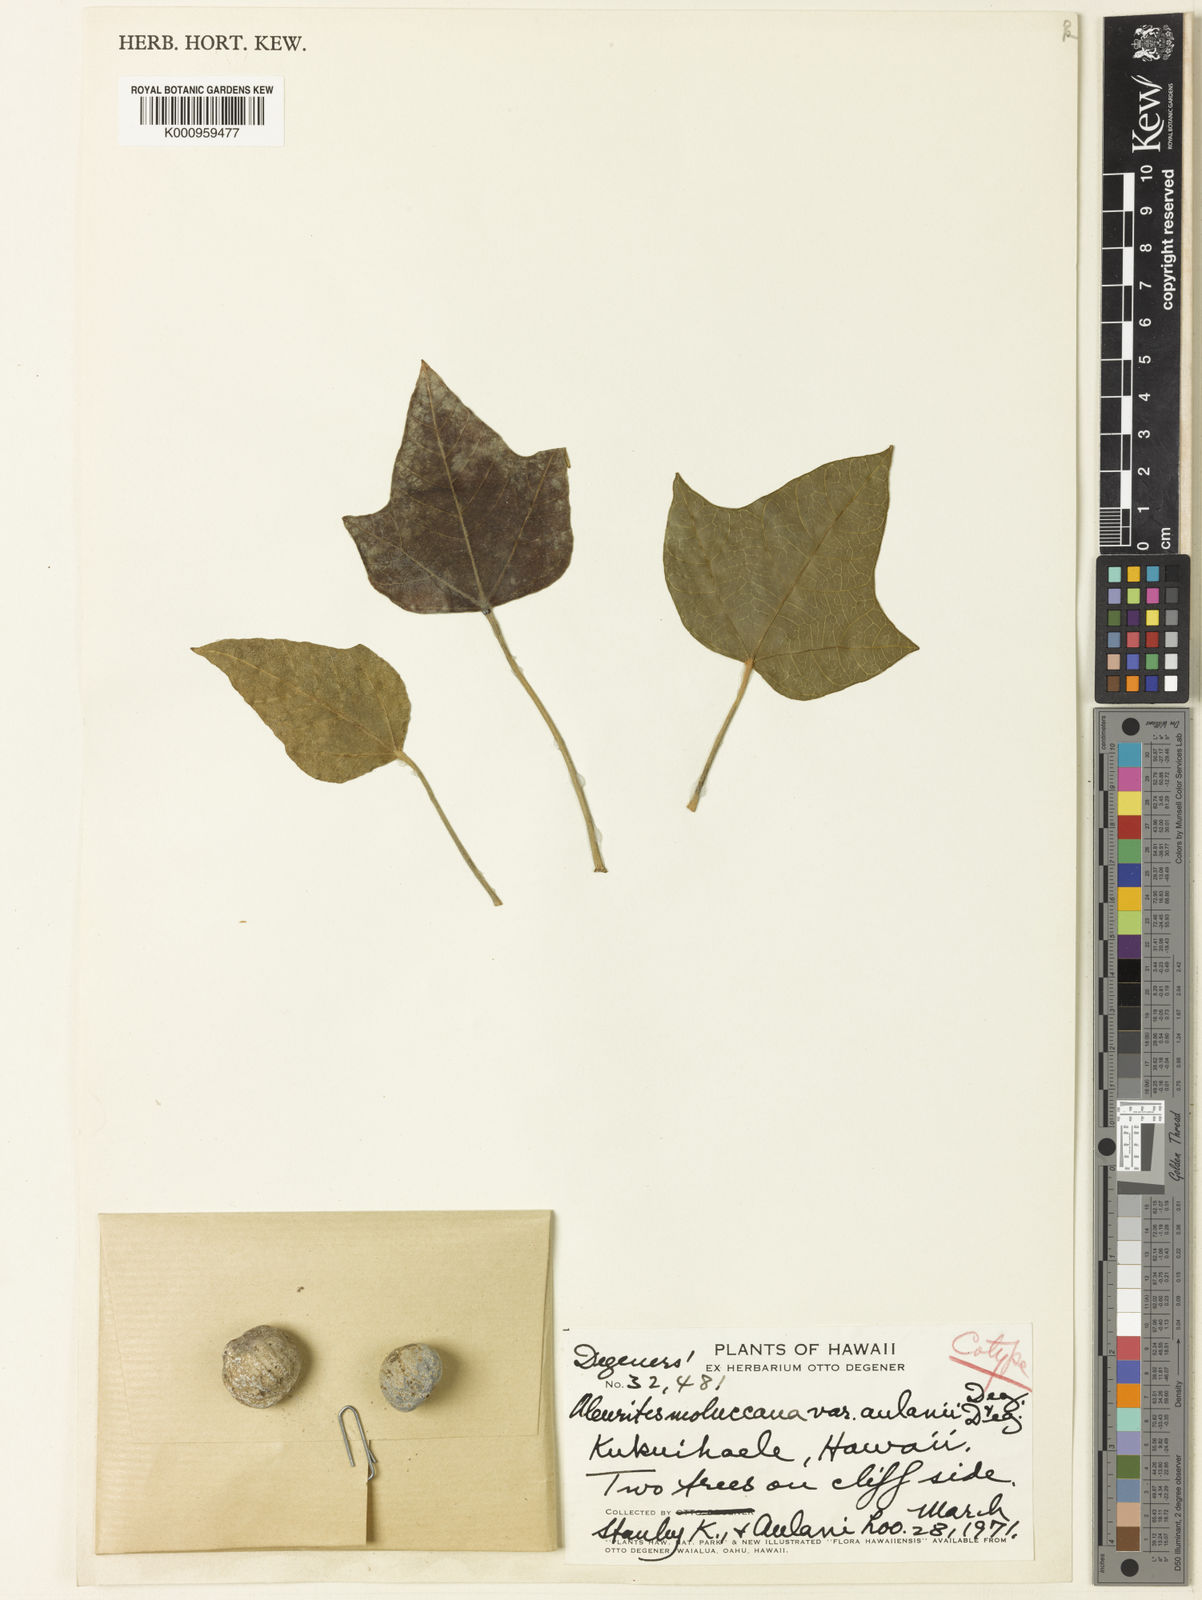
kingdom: Plantae
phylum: Tracheophyta
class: Magnoliopsida
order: Malpighiales
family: Euphorbiaceae
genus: Aleurites
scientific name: Aleurites moluccanus
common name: Candlenut tree
